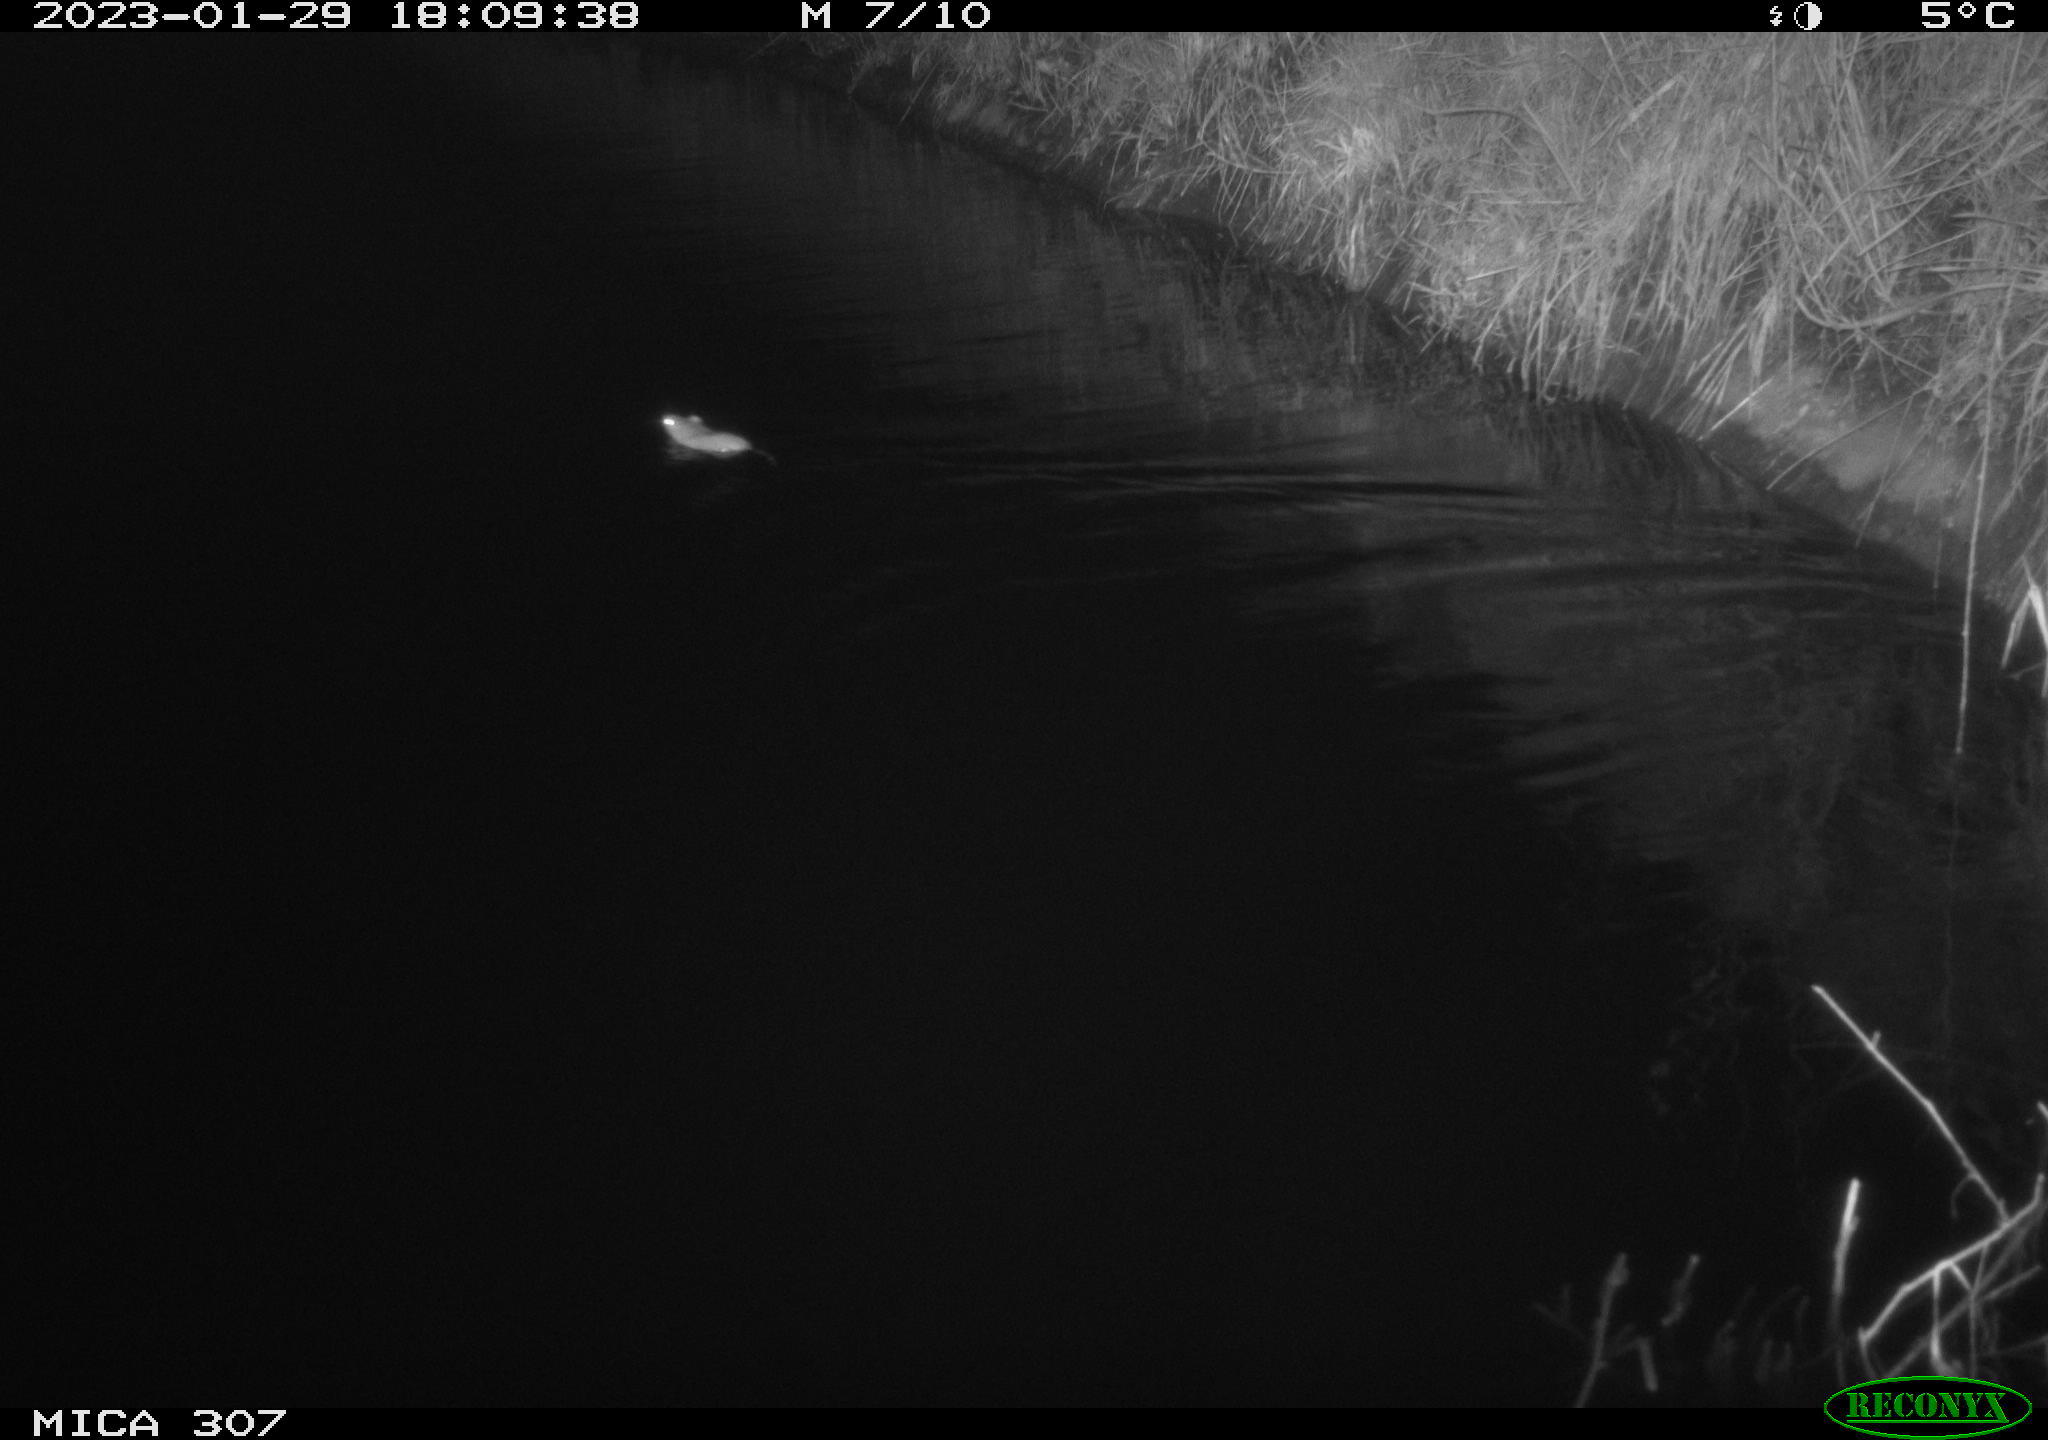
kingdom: Animalia
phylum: Chordata
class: Mammalia
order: Rodentia
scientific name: Rodentia
